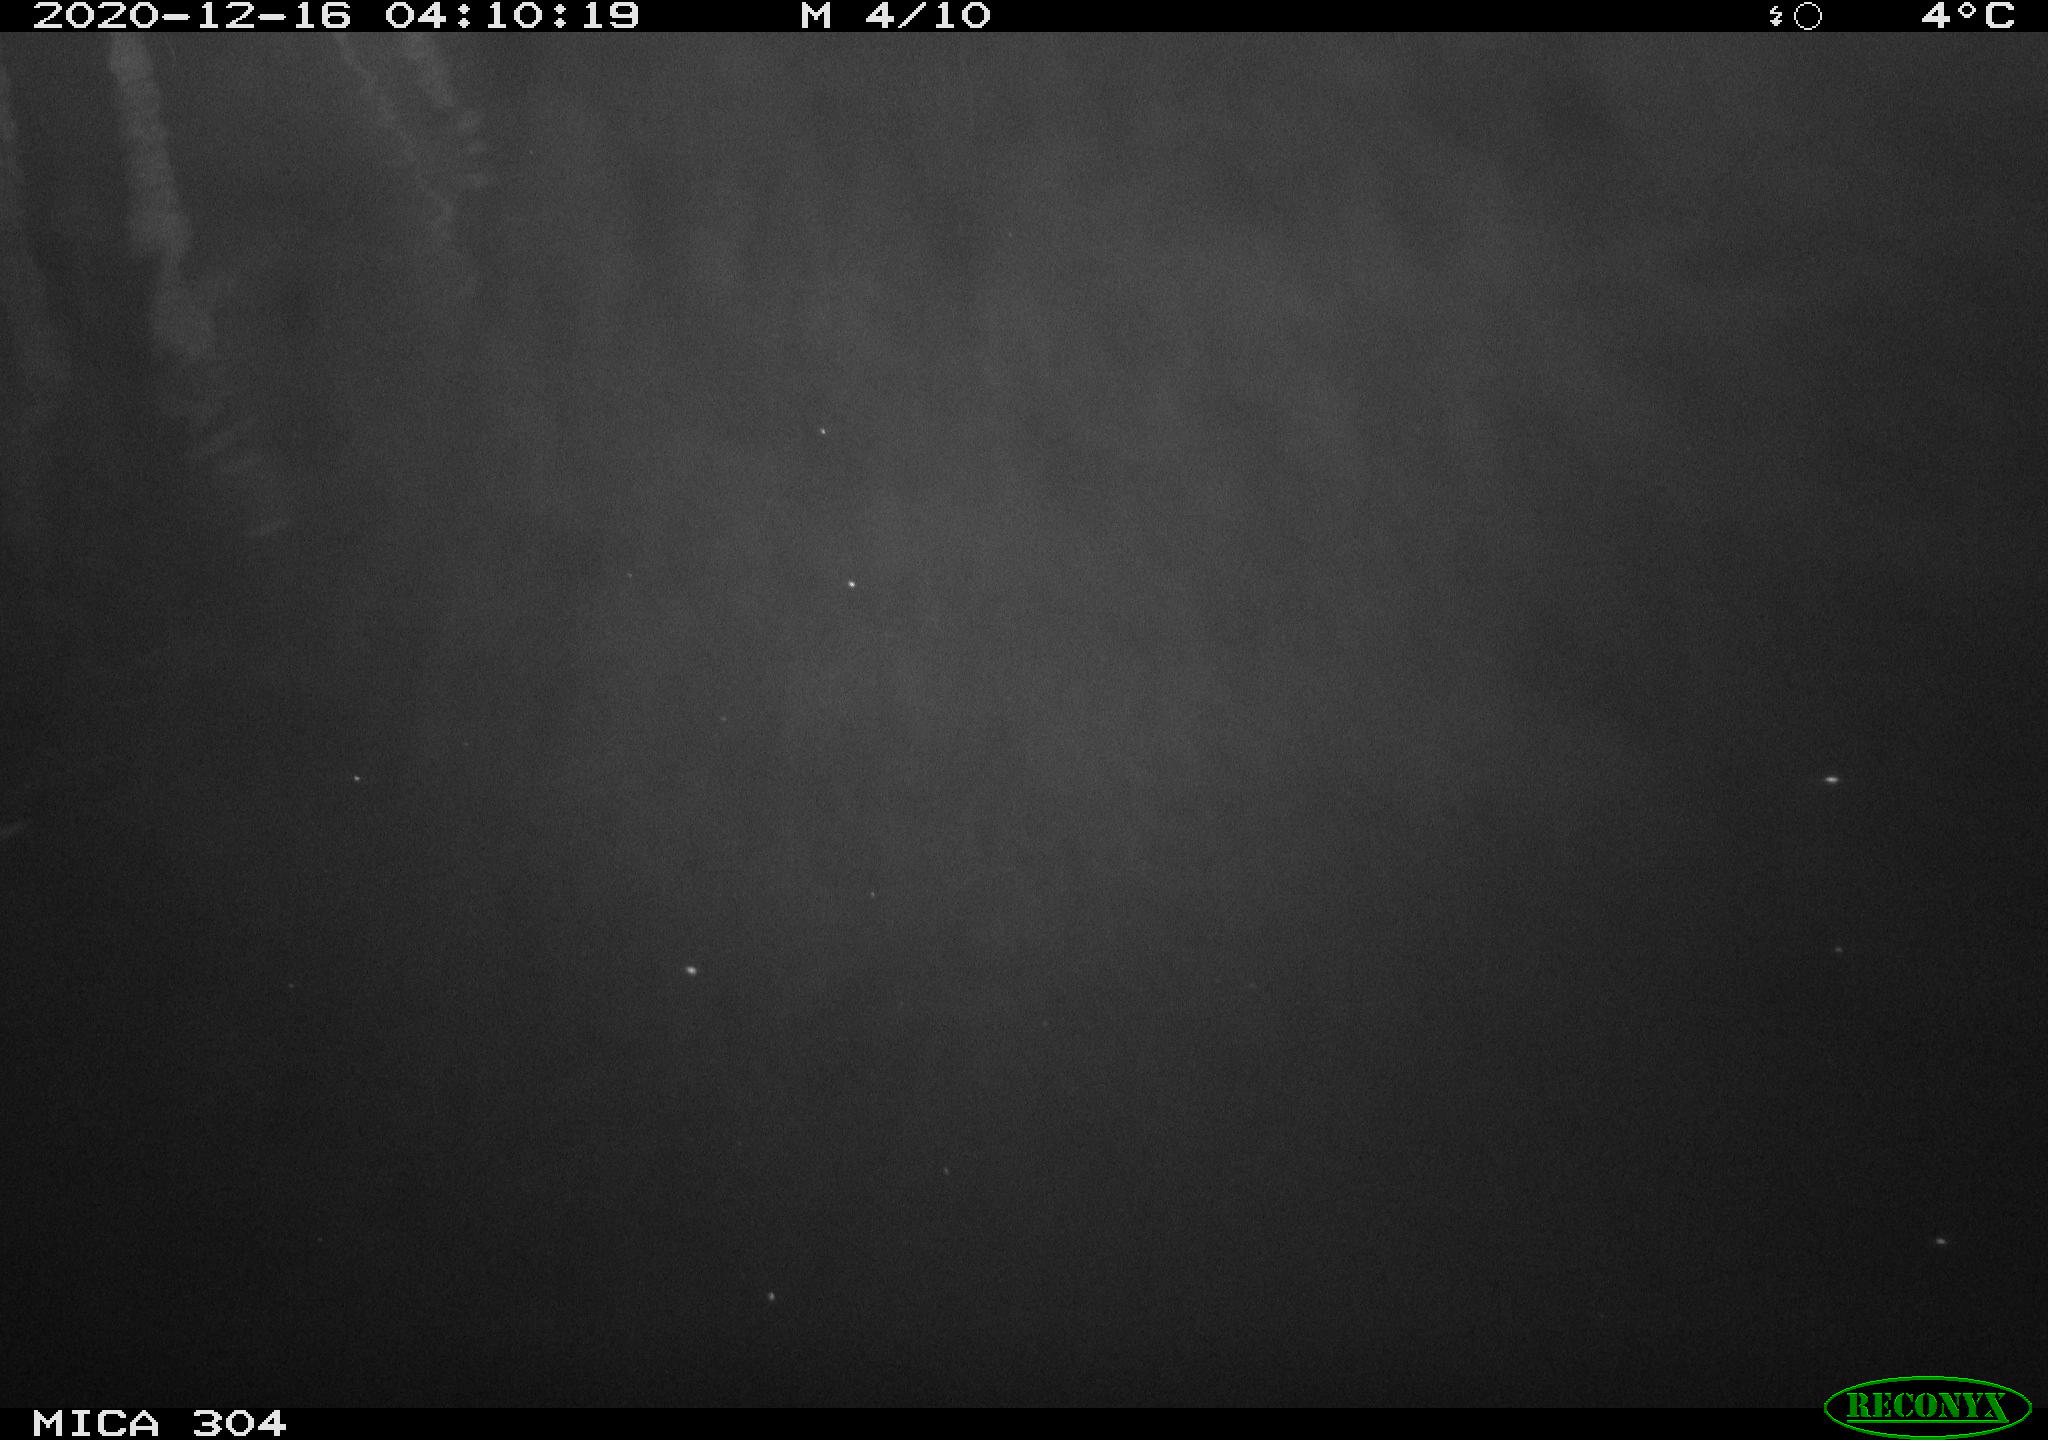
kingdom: Animalia
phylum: Chordata
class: Mammalia
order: Rodentia
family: Muridae
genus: Rattus
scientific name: Rattus norvegicus
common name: Brown rat
